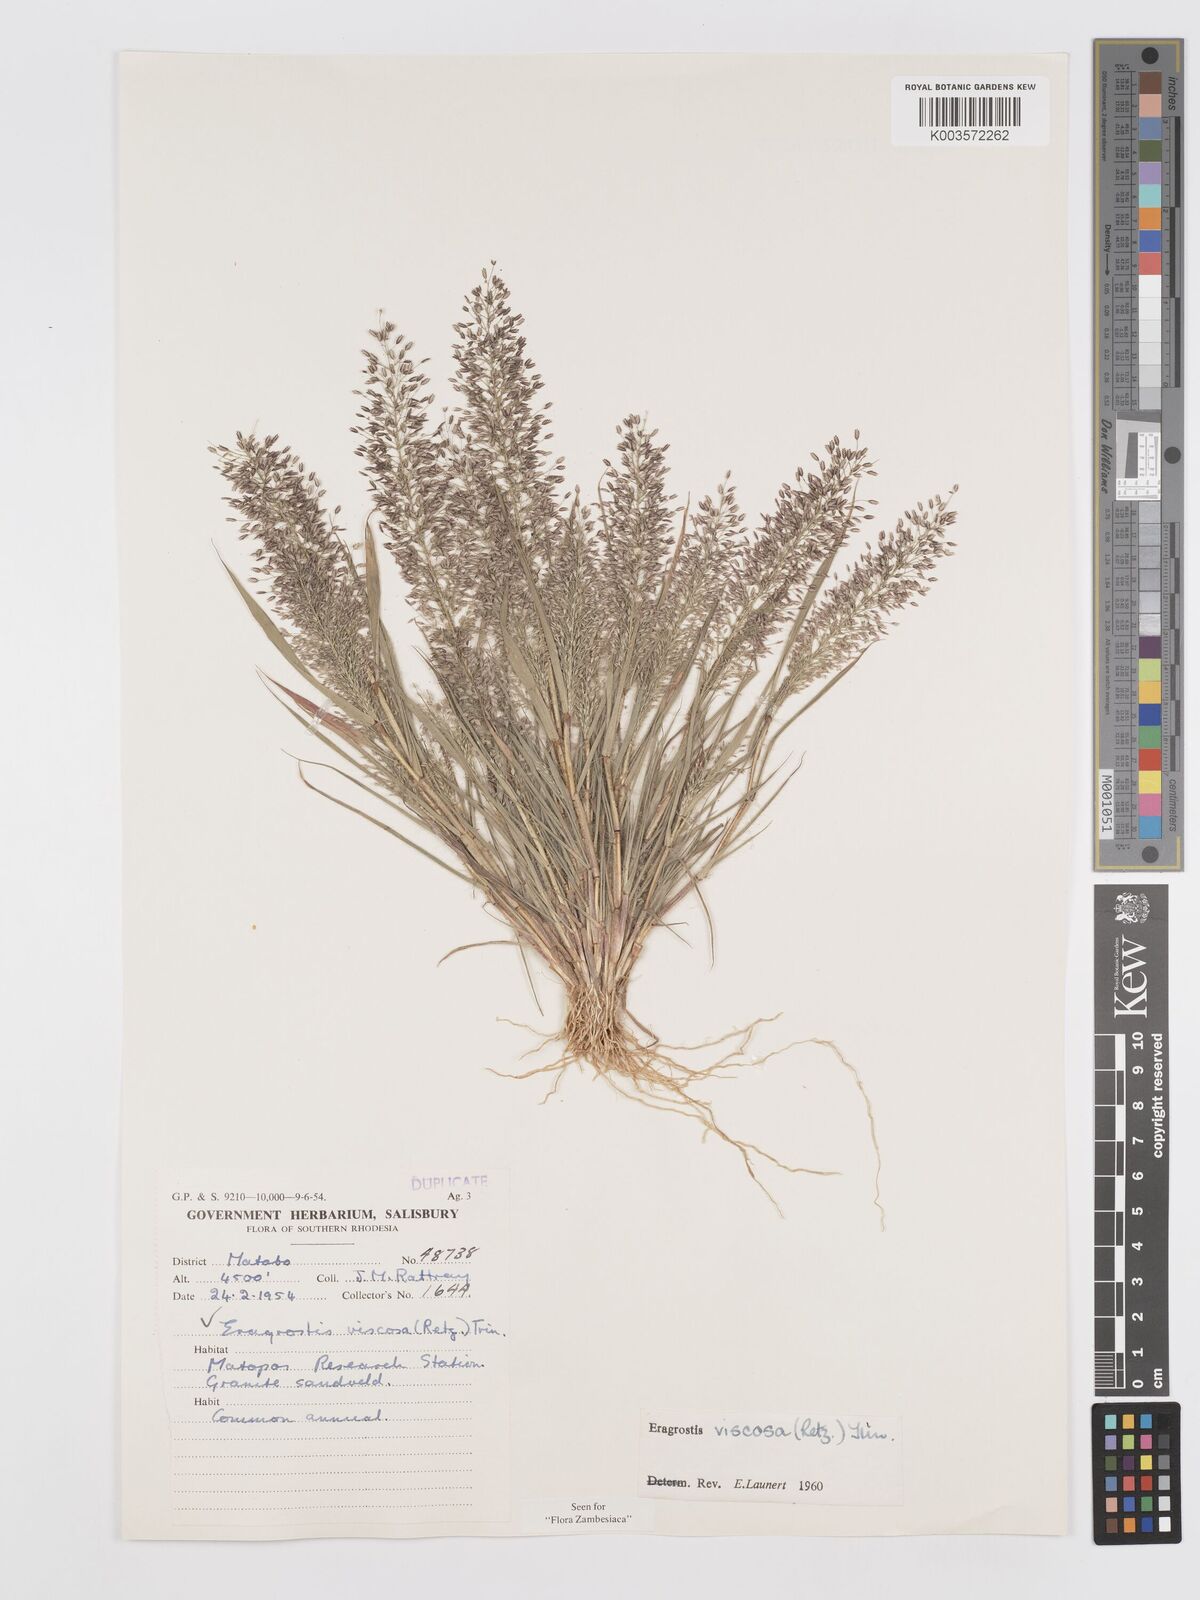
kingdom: Plantae
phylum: Tracheophyta
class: Liliopsida
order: Poales
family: Poaceae
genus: Eragrostis
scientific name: Eragrostis
